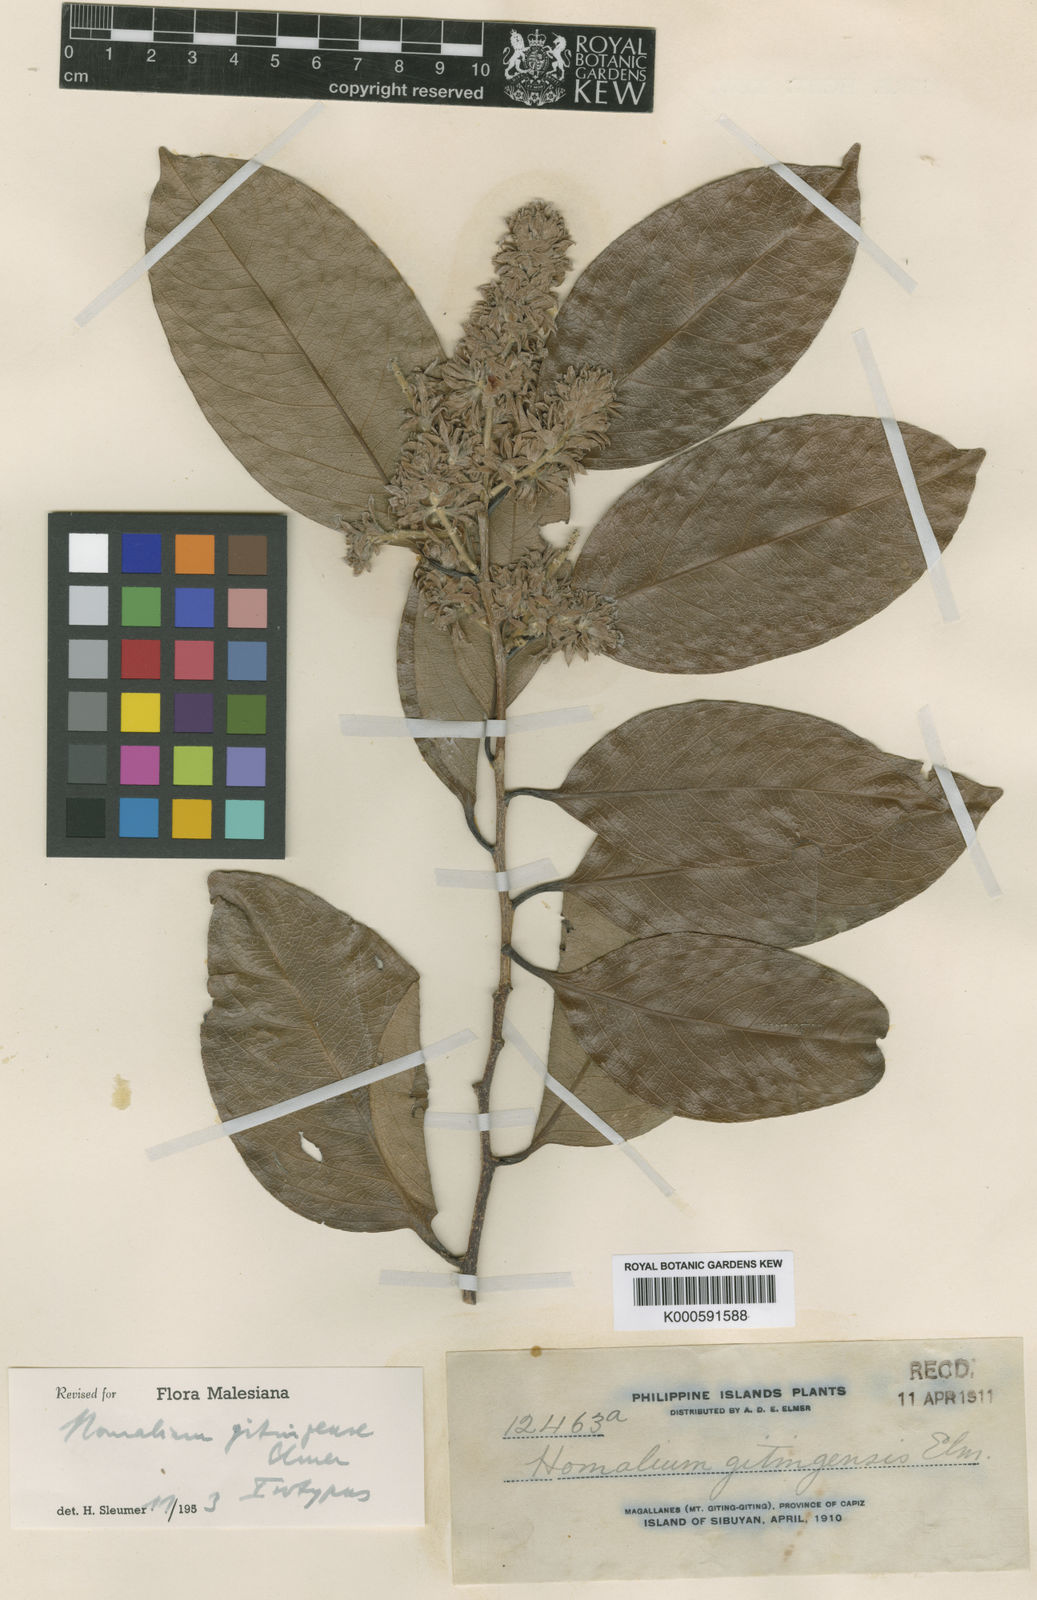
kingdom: Plantae
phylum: Tracheophyta
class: Magnoliopsida
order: Malpighiales
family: Salicaceae
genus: Homalium
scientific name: Homalium gitingense
